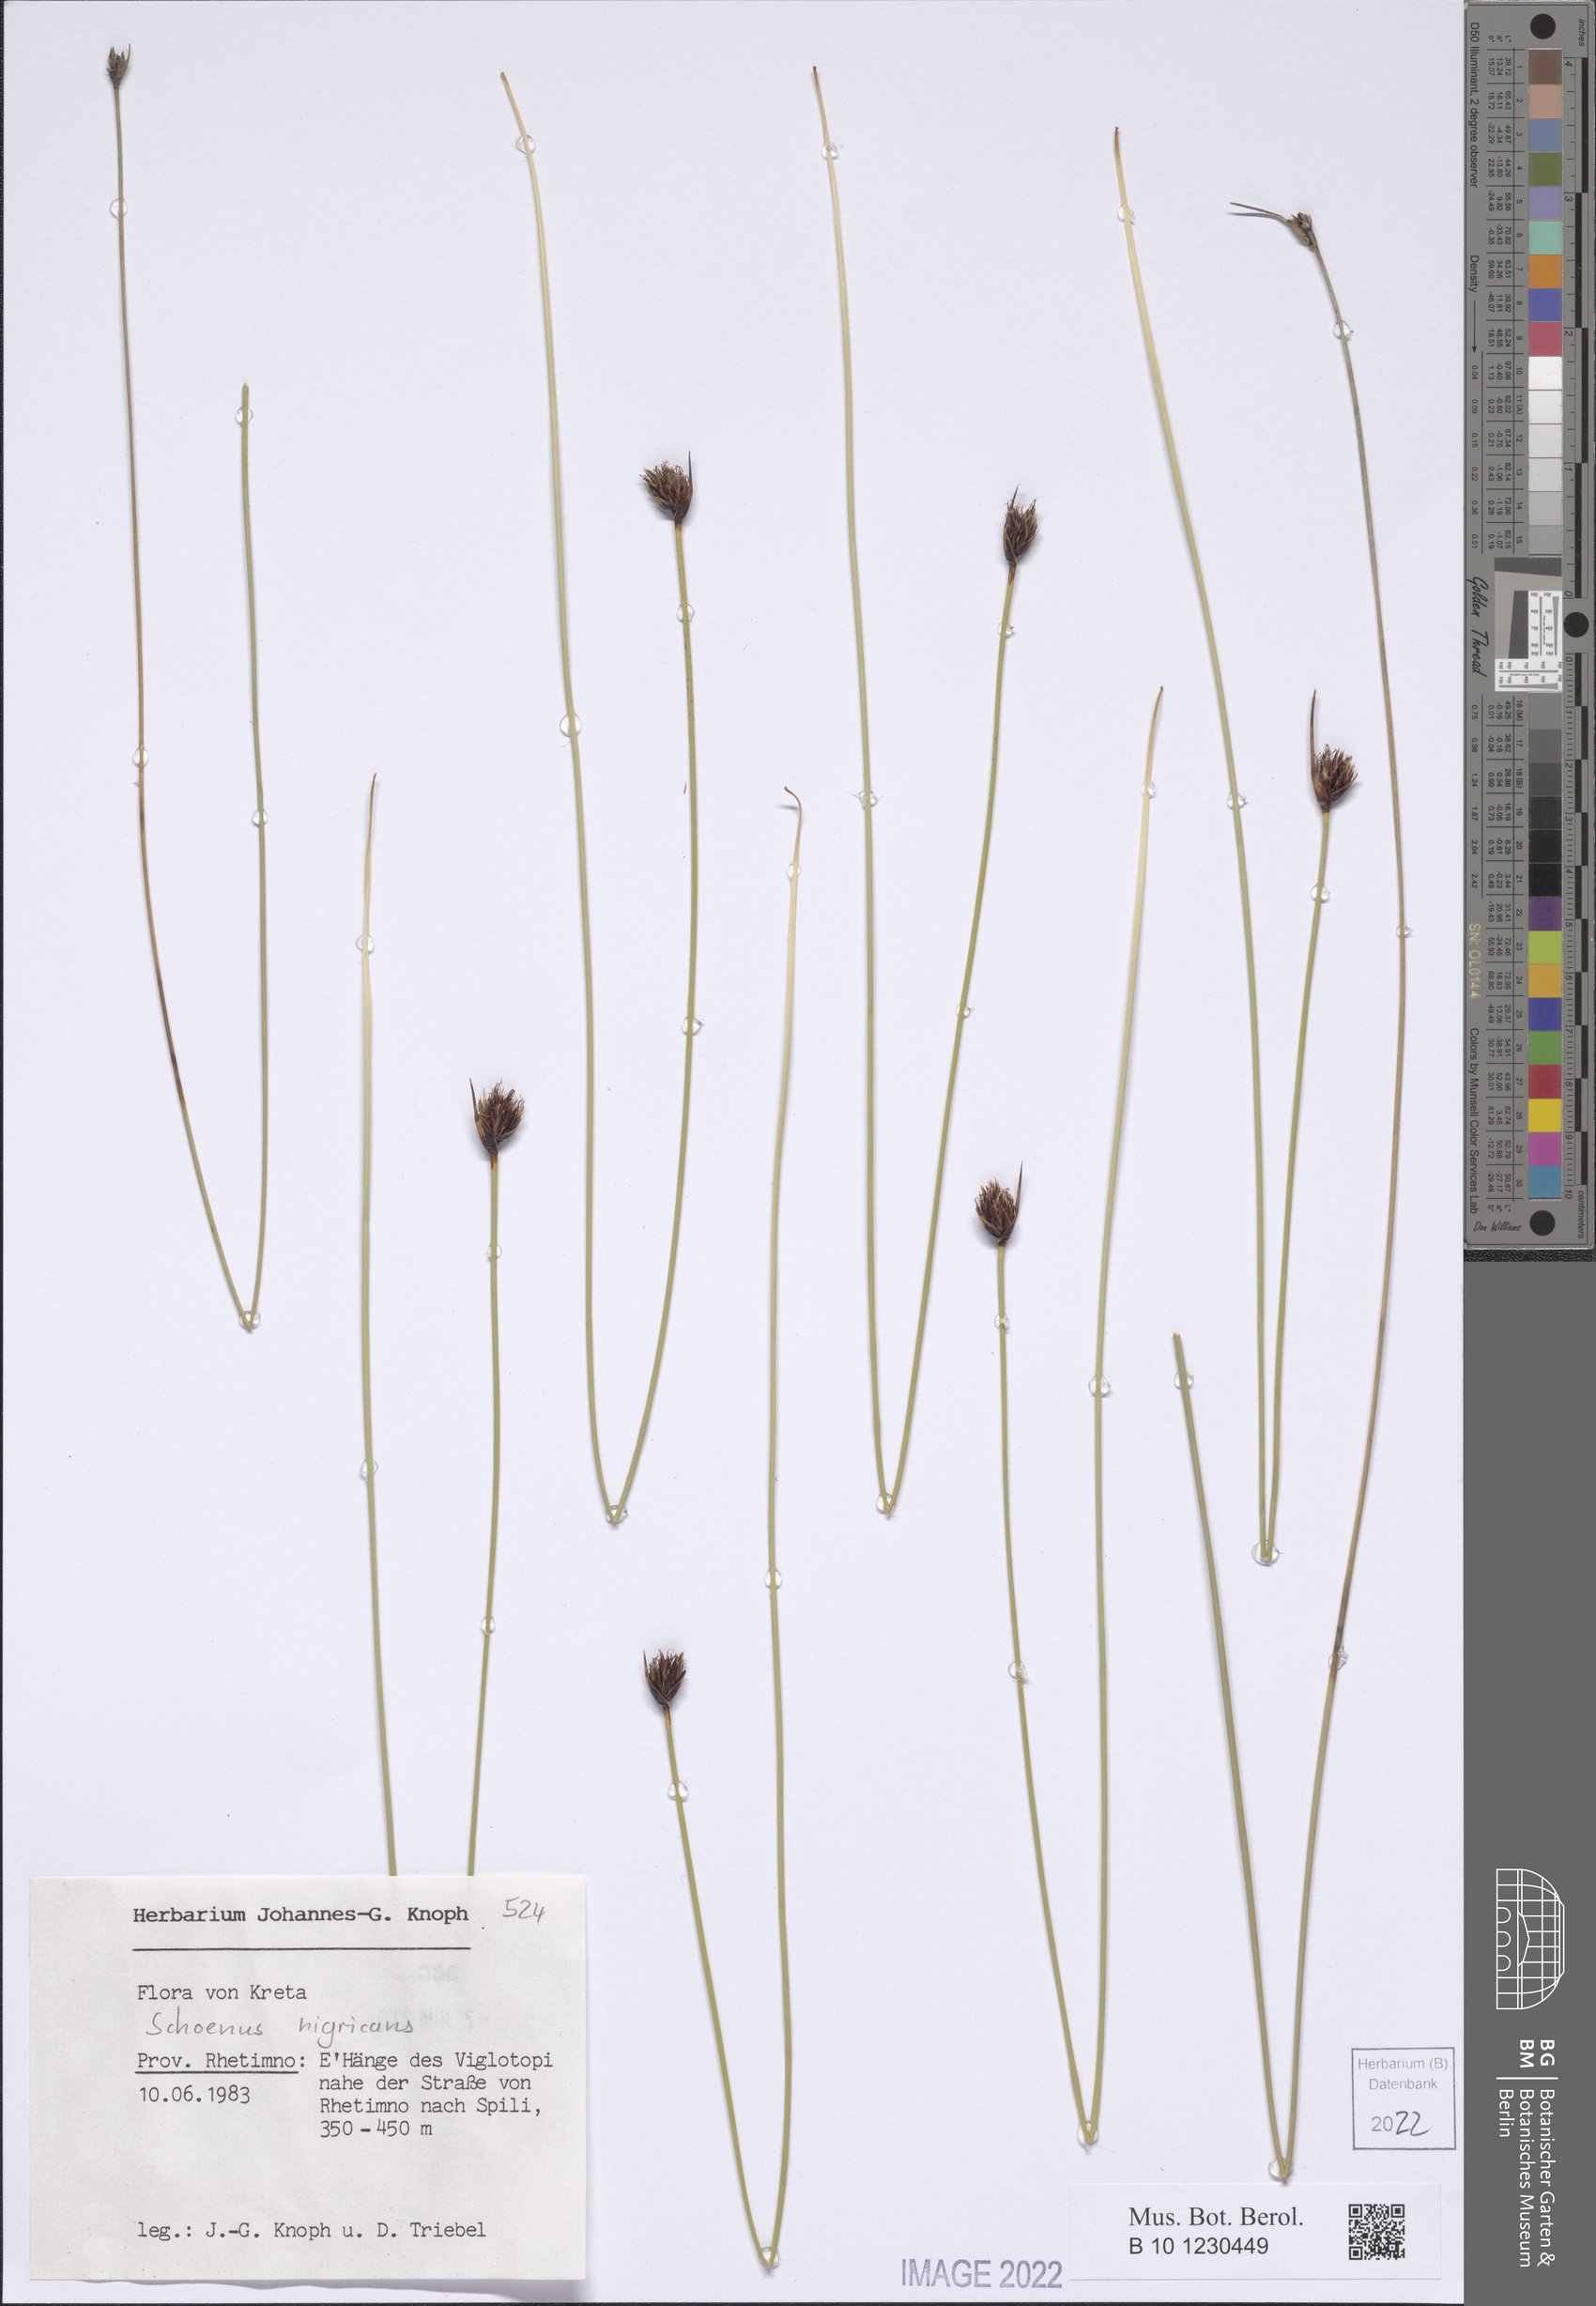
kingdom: Plantae
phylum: Tracheophyta
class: Liliopsida
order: Poales
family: Cyperaceae
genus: Schoenus
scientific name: Schoenus nigricans
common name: Black bog-rush
